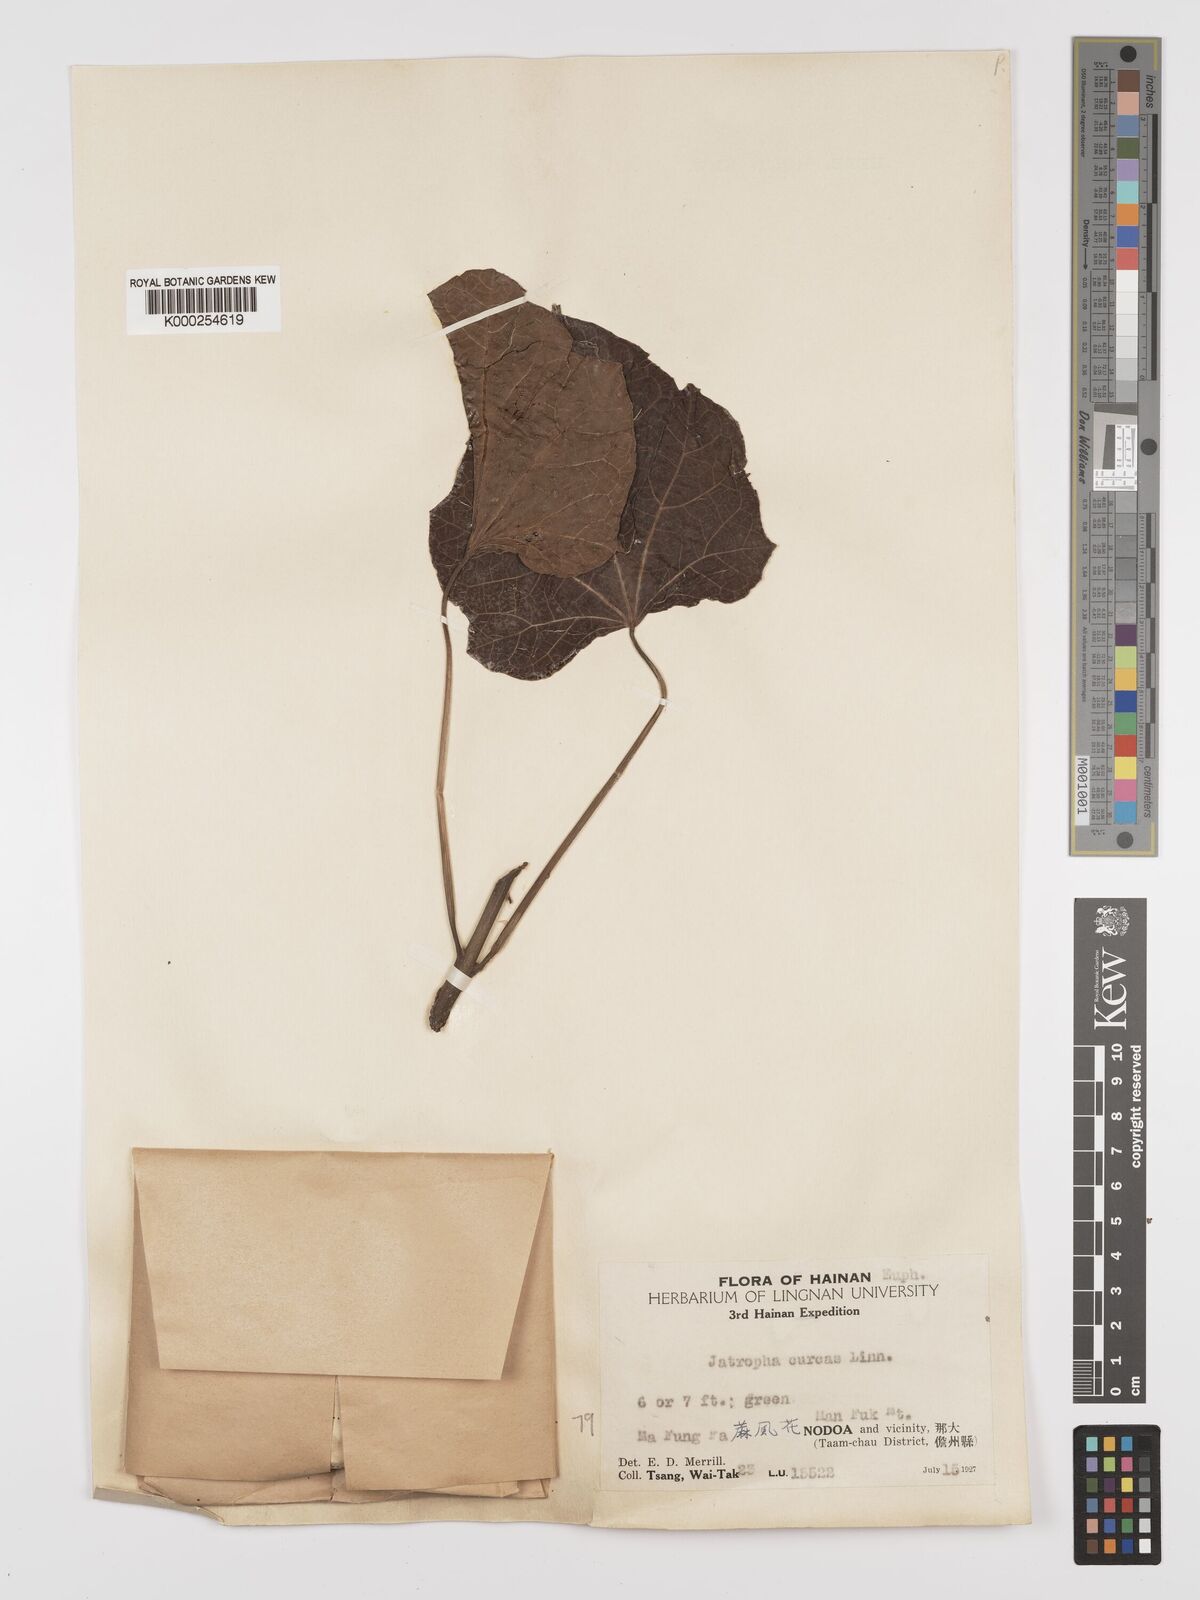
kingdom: Plantae
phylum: Tracheophyta
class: Magnoliopsida
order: Malpighiales
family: Euphorbiaceae
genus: Jatropha
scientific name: Jatropha curcas
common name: Barbados nut
